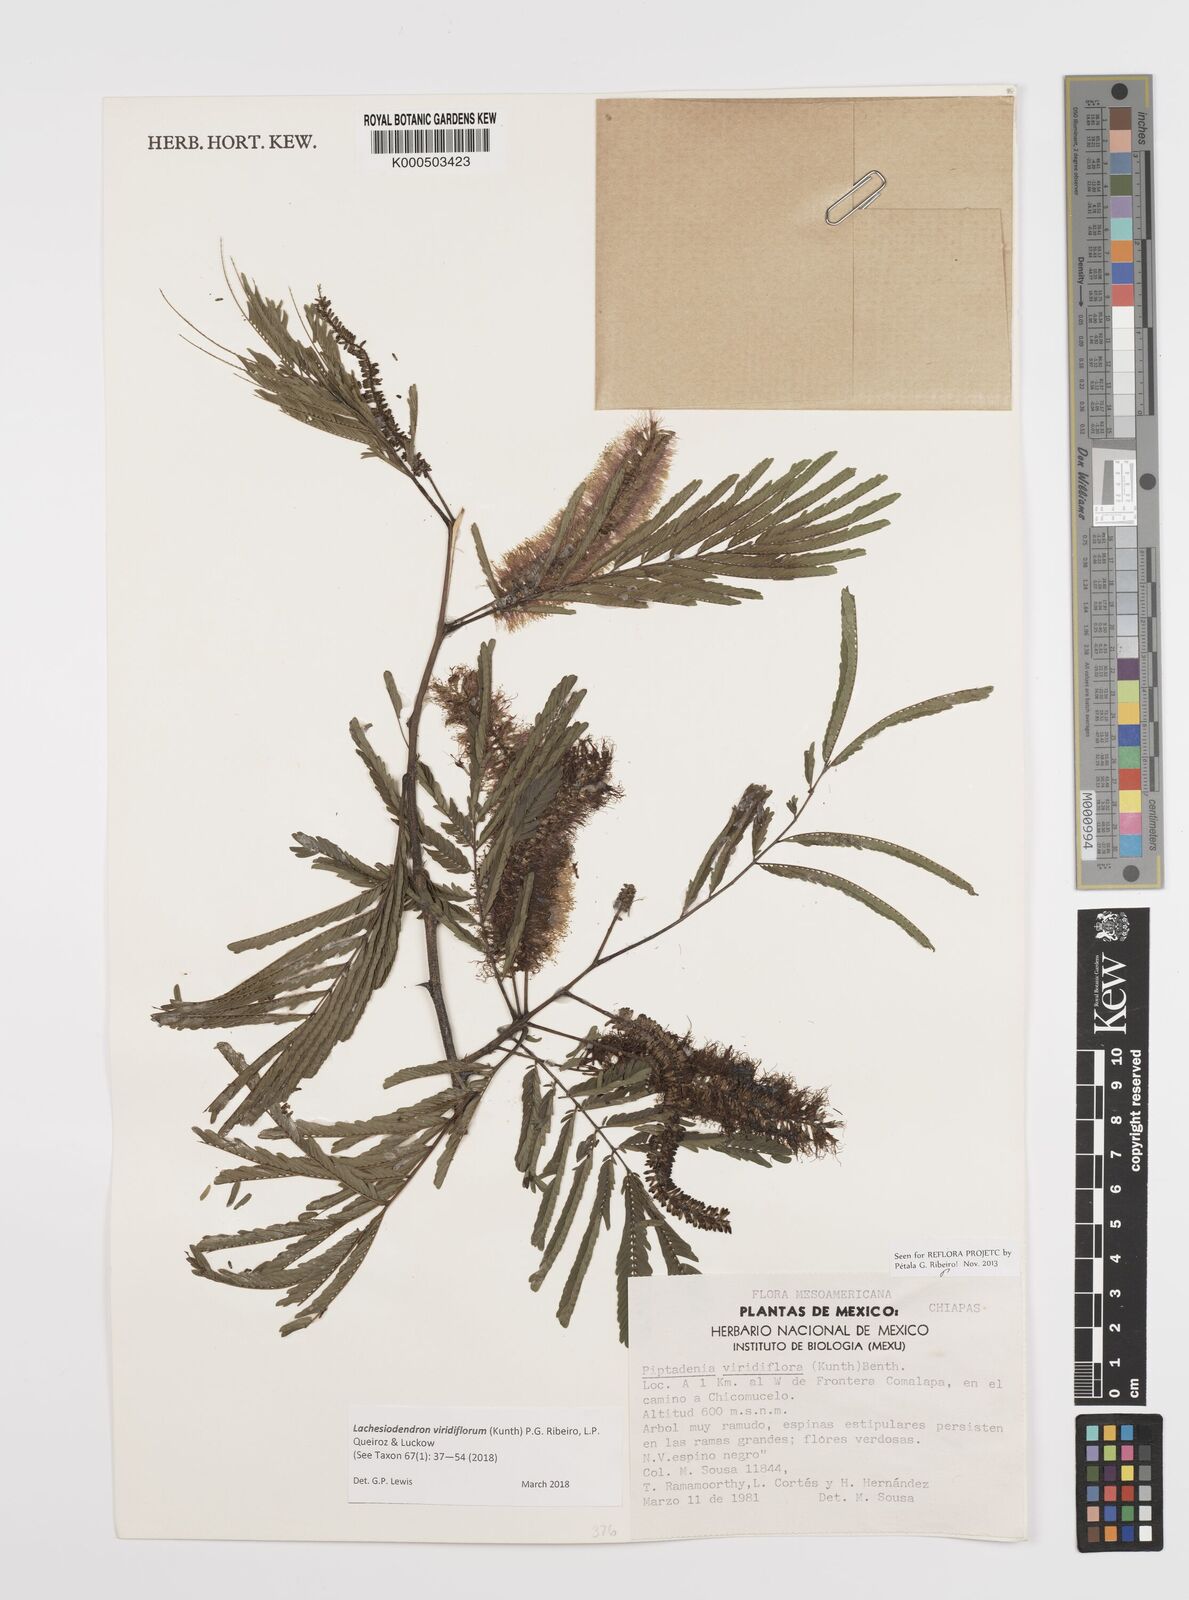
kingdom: Plantae
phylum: Tracheophyta
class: Magnoliopsida
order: Fabales
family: Fabaceae
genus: Lachesiodendron
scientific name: Lachesiodendron viridiflorum
